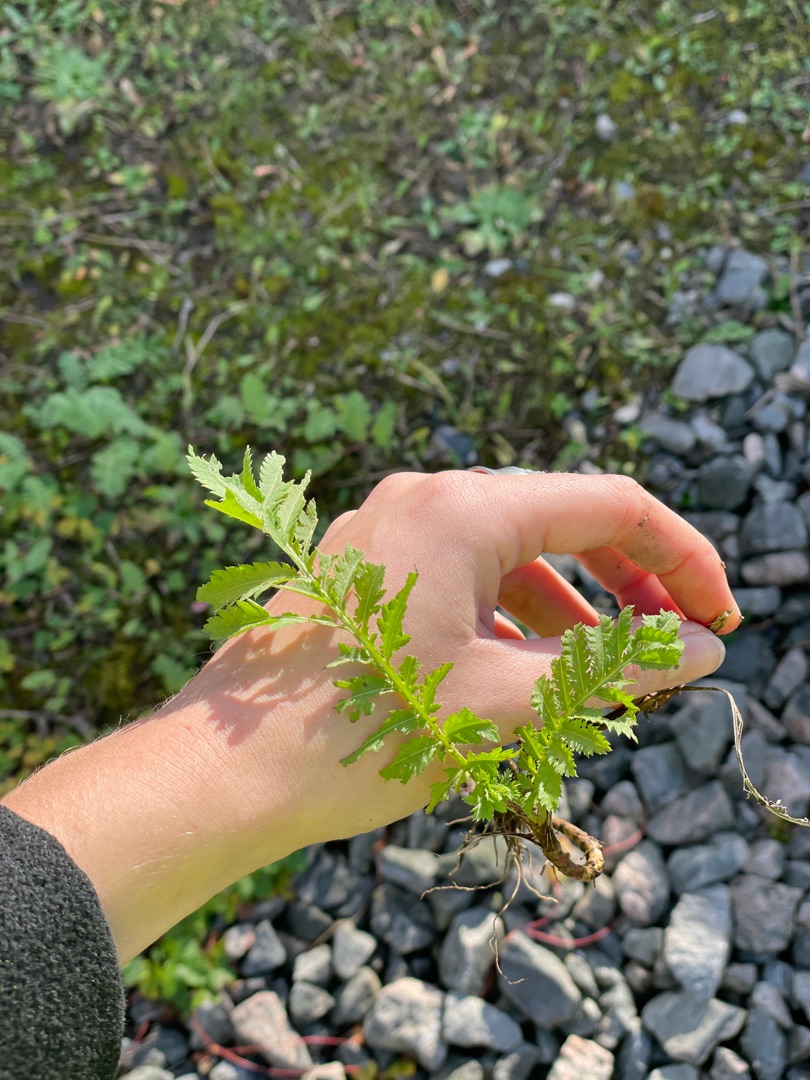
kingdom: Plantae
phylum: Tracheophyta
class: Magnoliopsida
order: Asterales
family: Asteraceae
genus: Tanacetum
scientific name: Tanacetum vulgare
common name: Rejnfan
